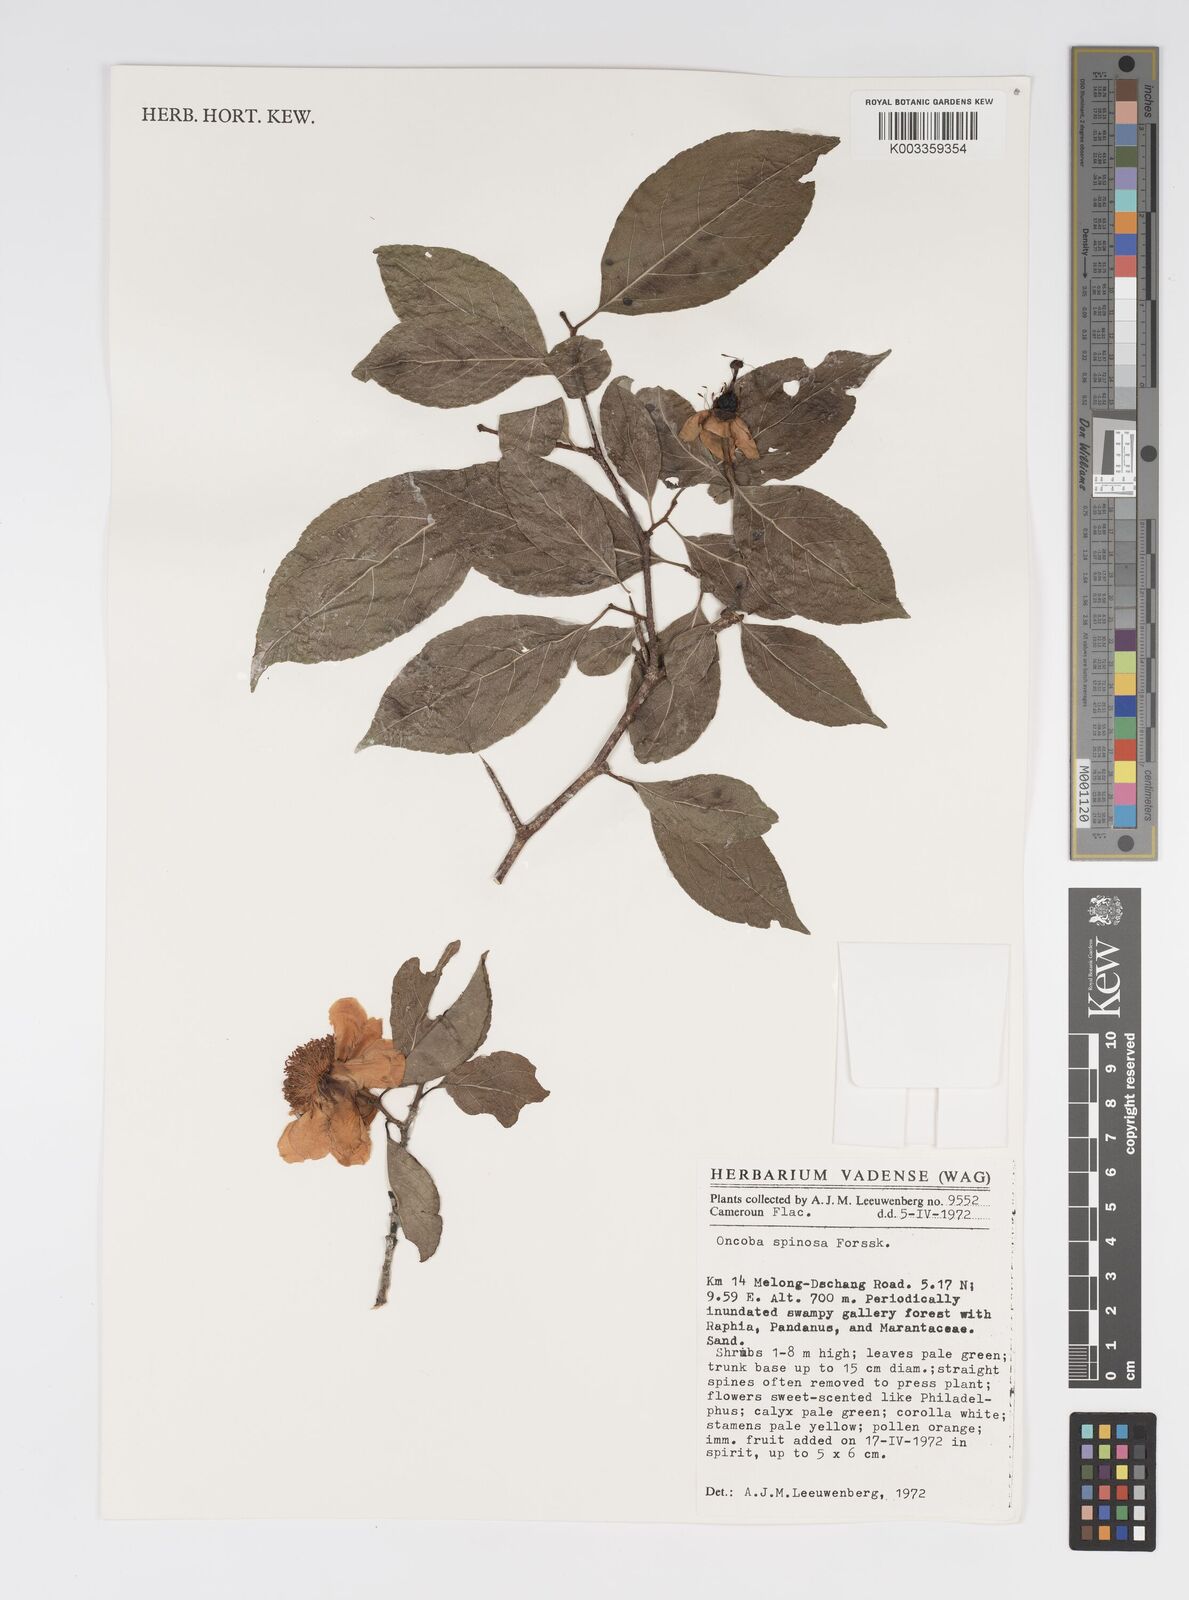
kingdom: Plantae
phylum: Tracheophyta
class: Magnoliopsida
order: Malpighiales
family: Salicaceae
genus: Oncoba
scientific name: Oncoba spinosa
